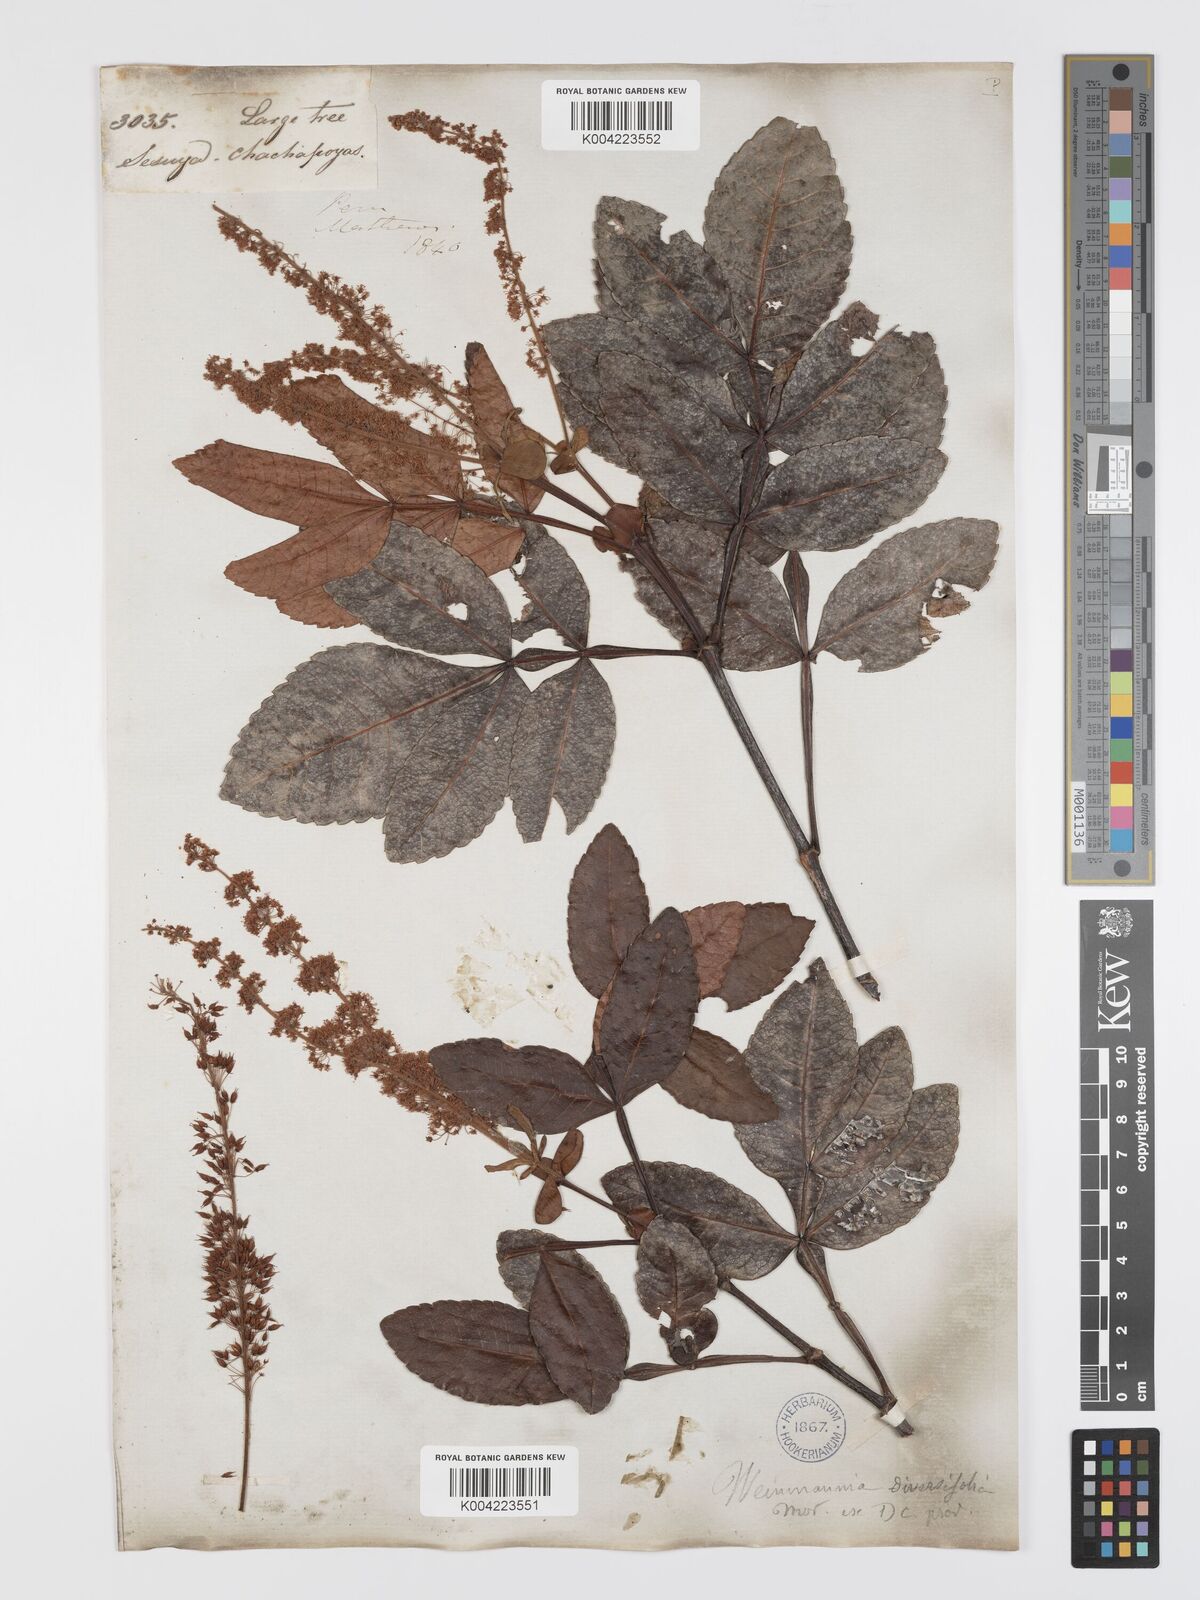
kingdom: Plantae
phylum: Tracheophyta
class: Magnoliopsida
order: Oxalidales
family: Cunoniaceae
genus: Weinmannia
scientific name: Weinmannia spruceana
